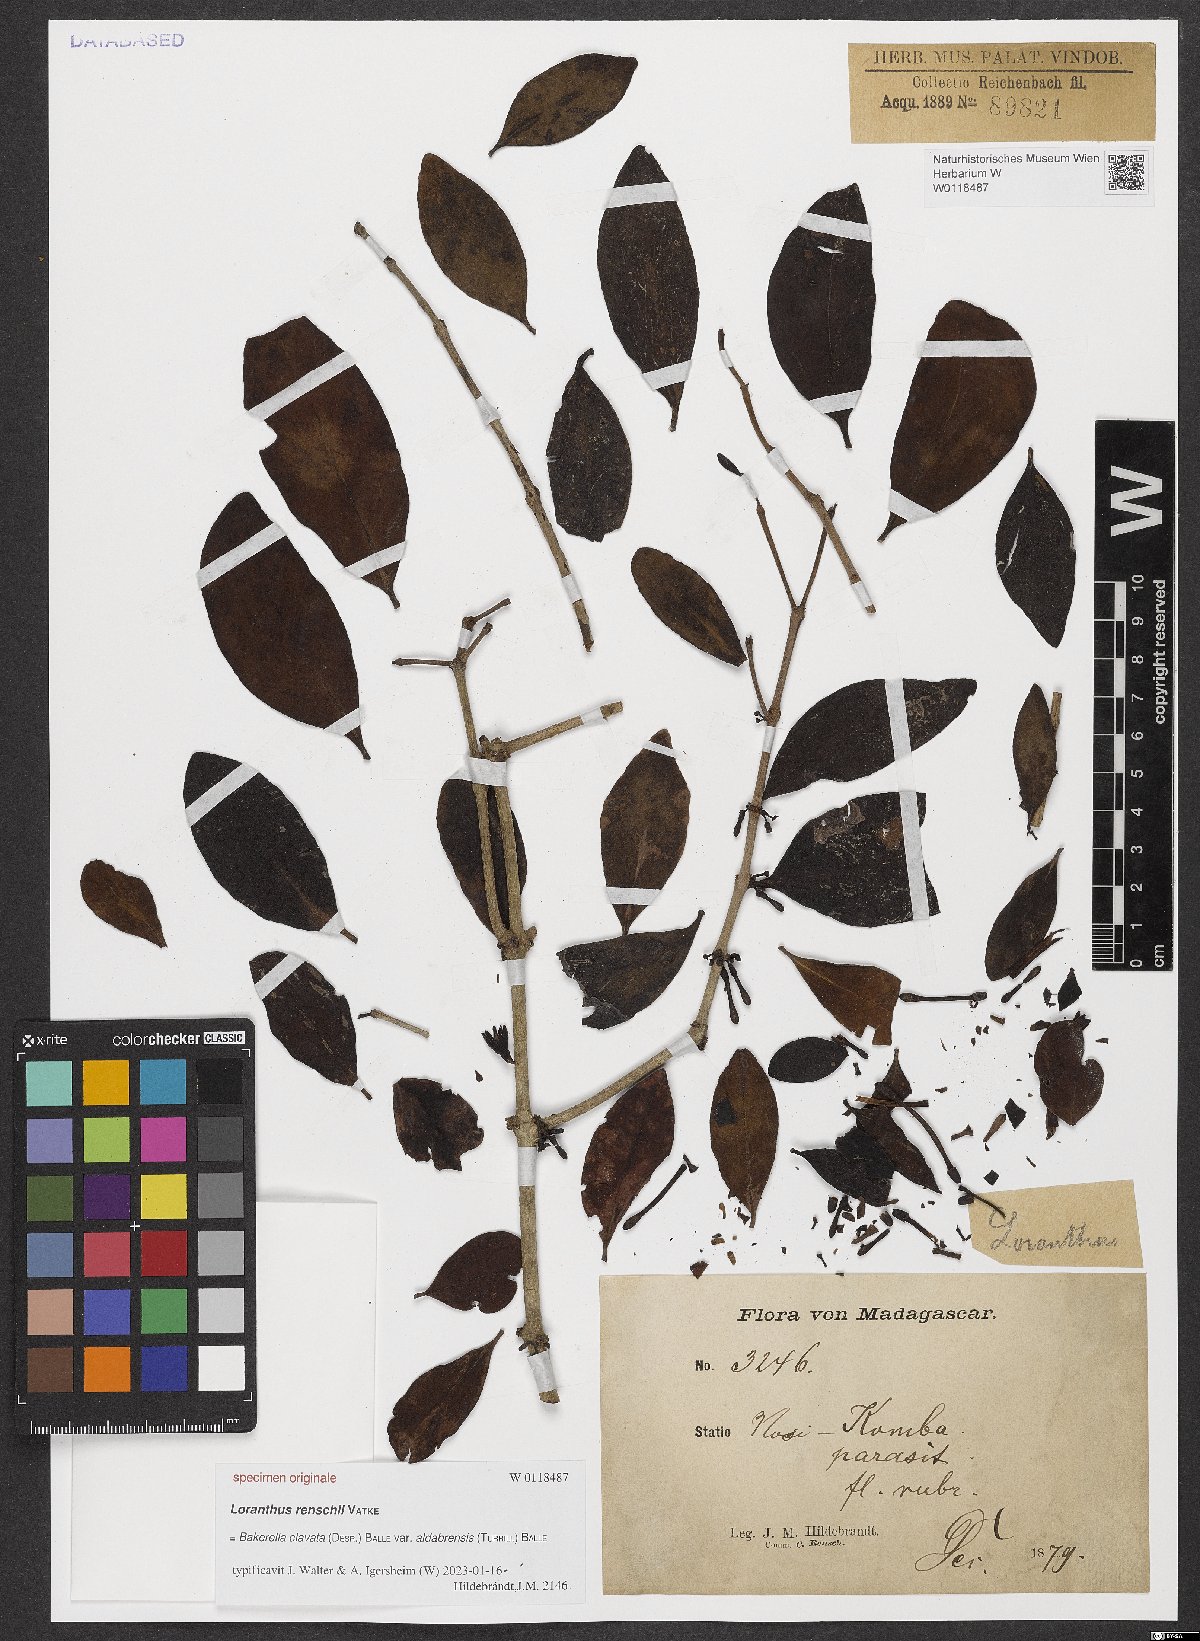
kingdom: Plantae
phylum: Tracheophyta
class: Magnoliopsida
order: Santalales
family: Loranthaceae
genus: Bakerella
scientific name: Bakerella clavata
